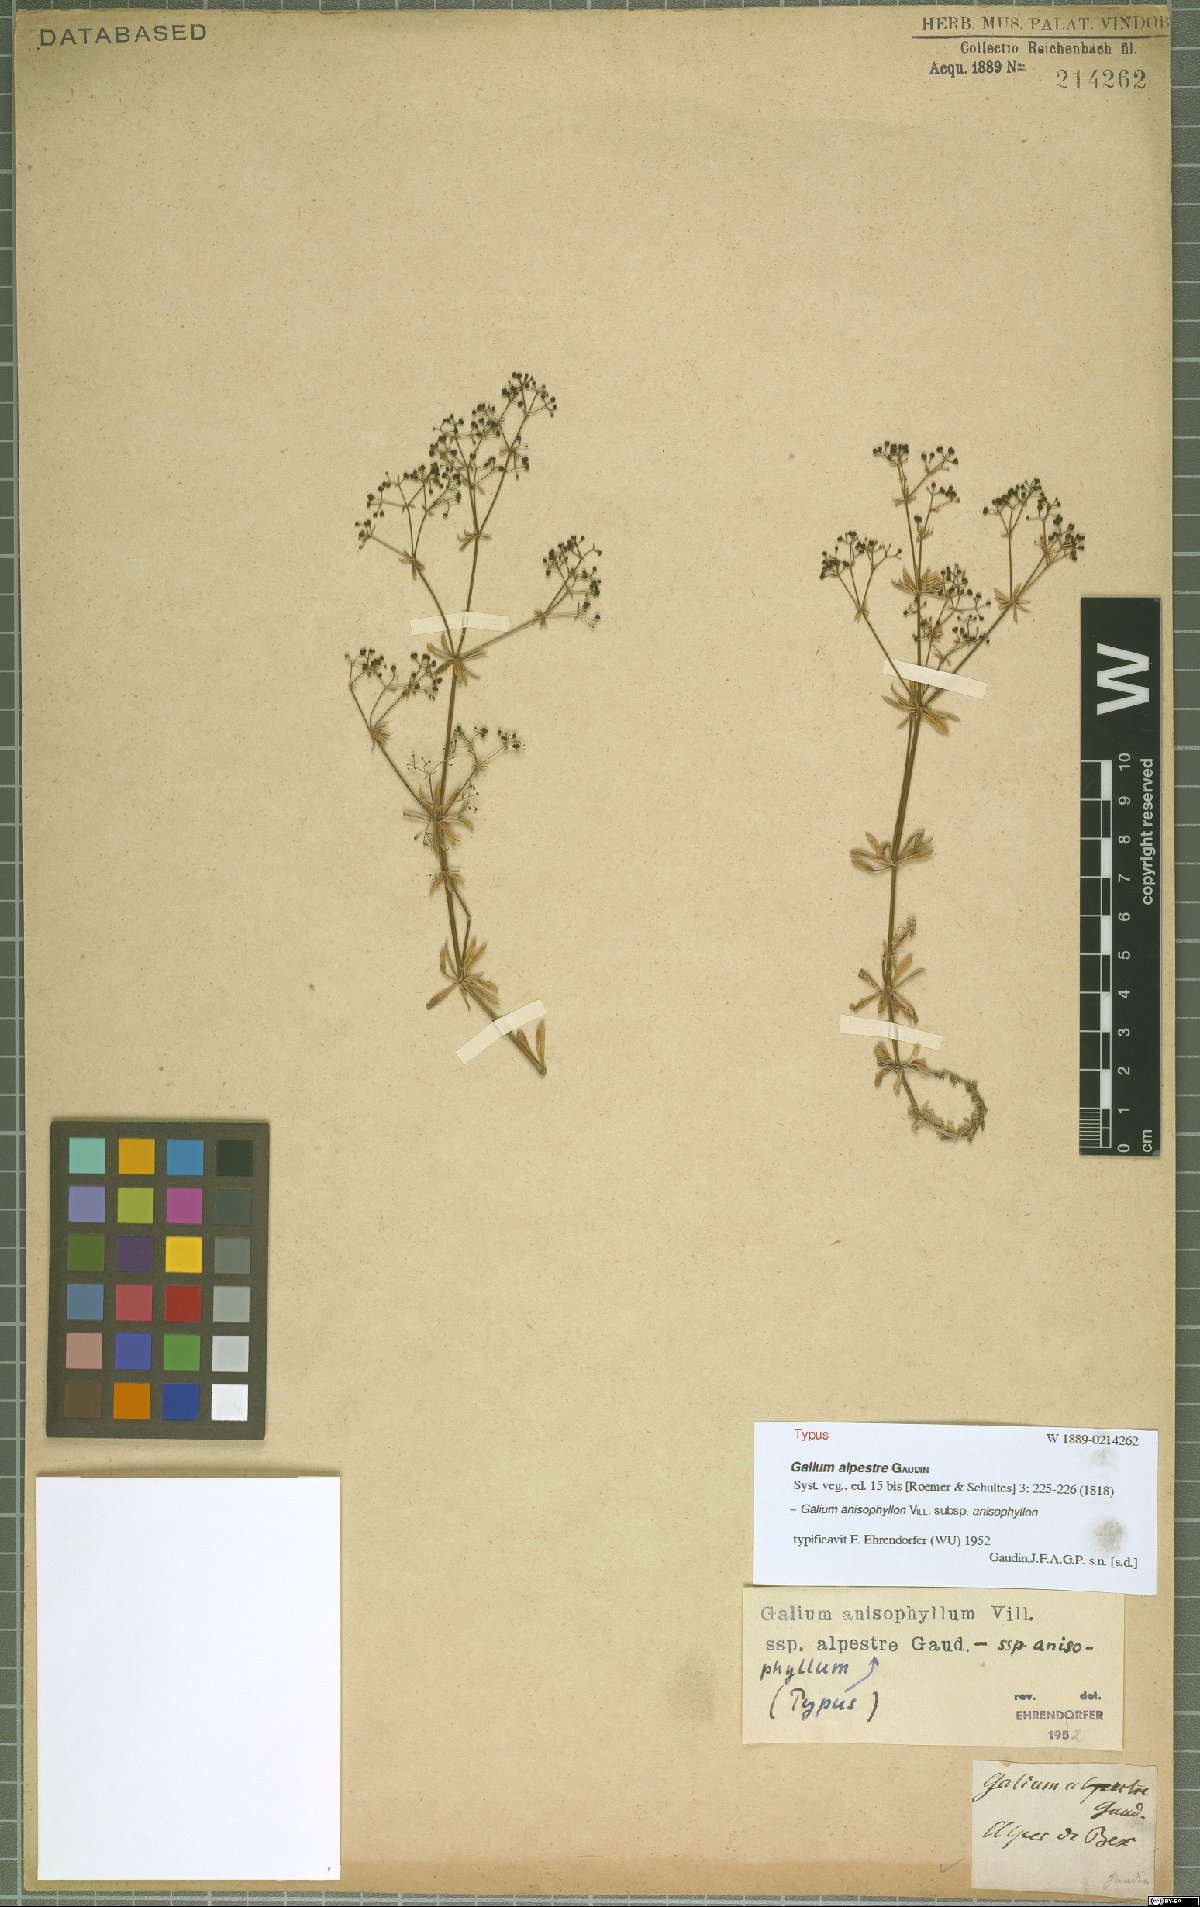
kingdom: Plantae
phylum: Tracheophyta
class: Magnoliopsida
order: Gentianales
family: Rubiaceae
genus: Galium
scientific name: Galium anisophyllon
